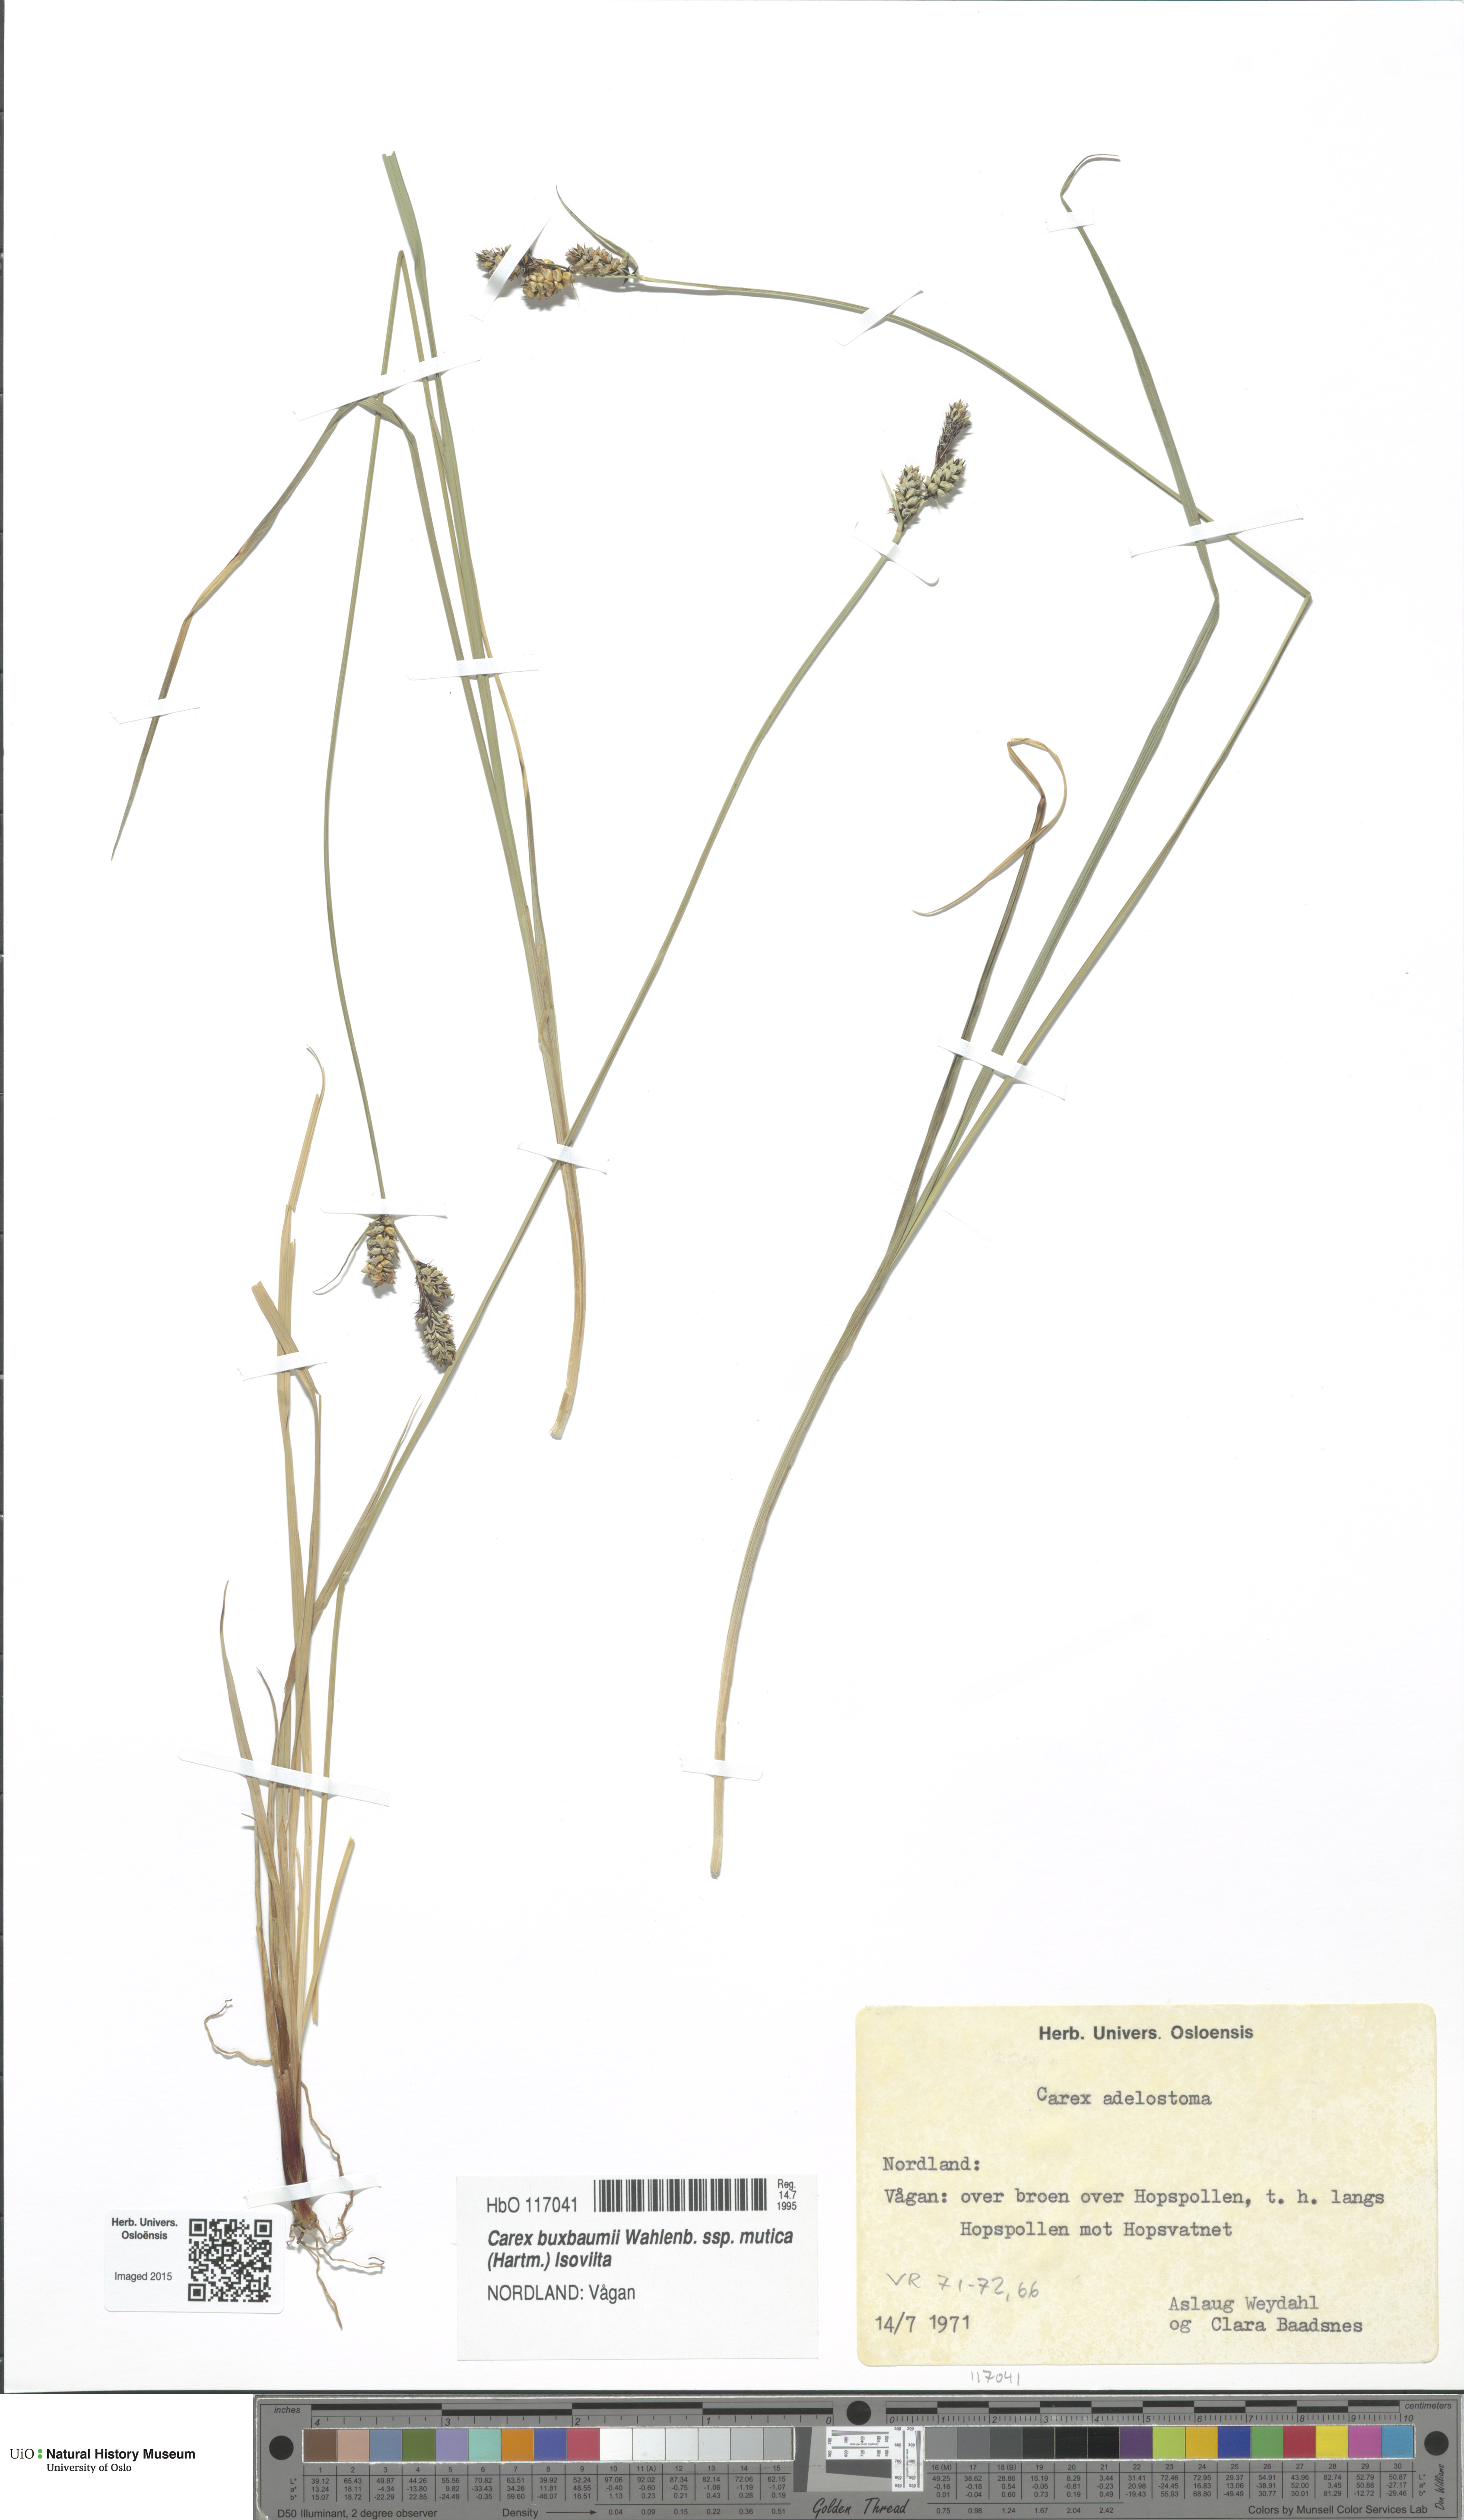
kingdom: Plantae
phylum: Tracheophyta
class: Liliopsida
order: Poales
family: Cyperaceae
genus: Carex
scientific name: Carex adelostoma
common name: Circumpolar sedge
